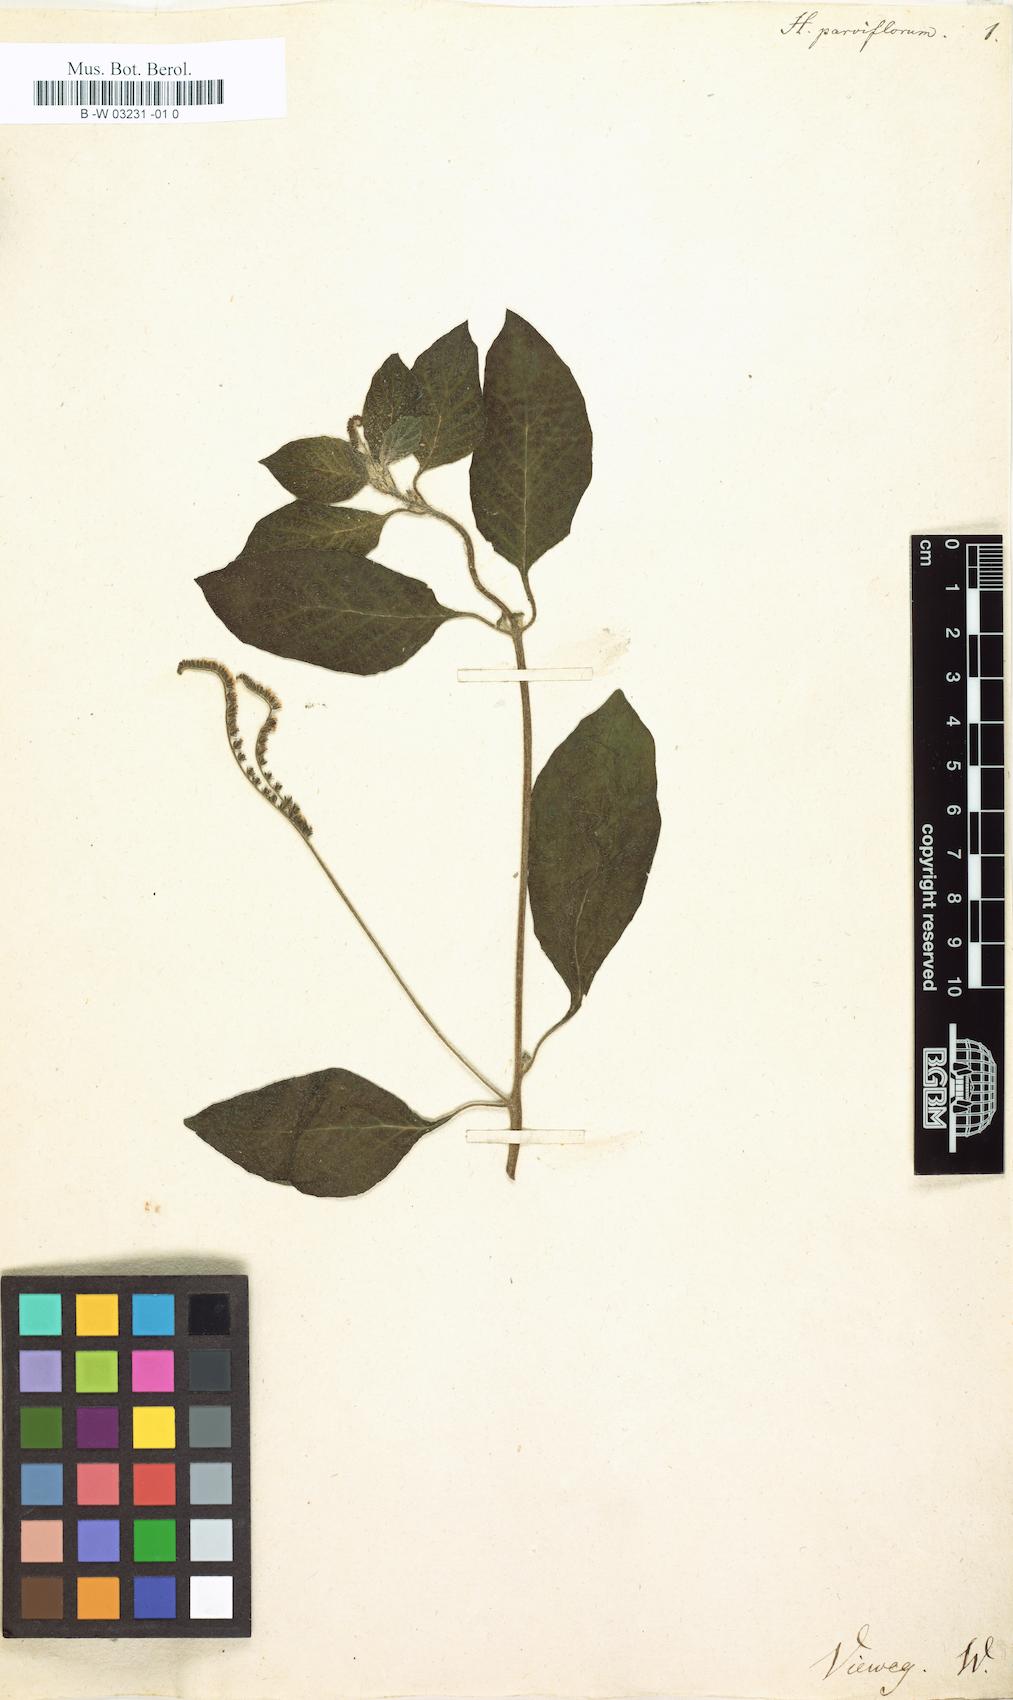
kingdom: Plantae
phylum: Tracheophyta
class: Magnoliopsida
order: Boraginales
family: Heliotropiaceae
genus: Heliotropium
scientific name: Heliotropium angiospermum
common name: Eye bright
